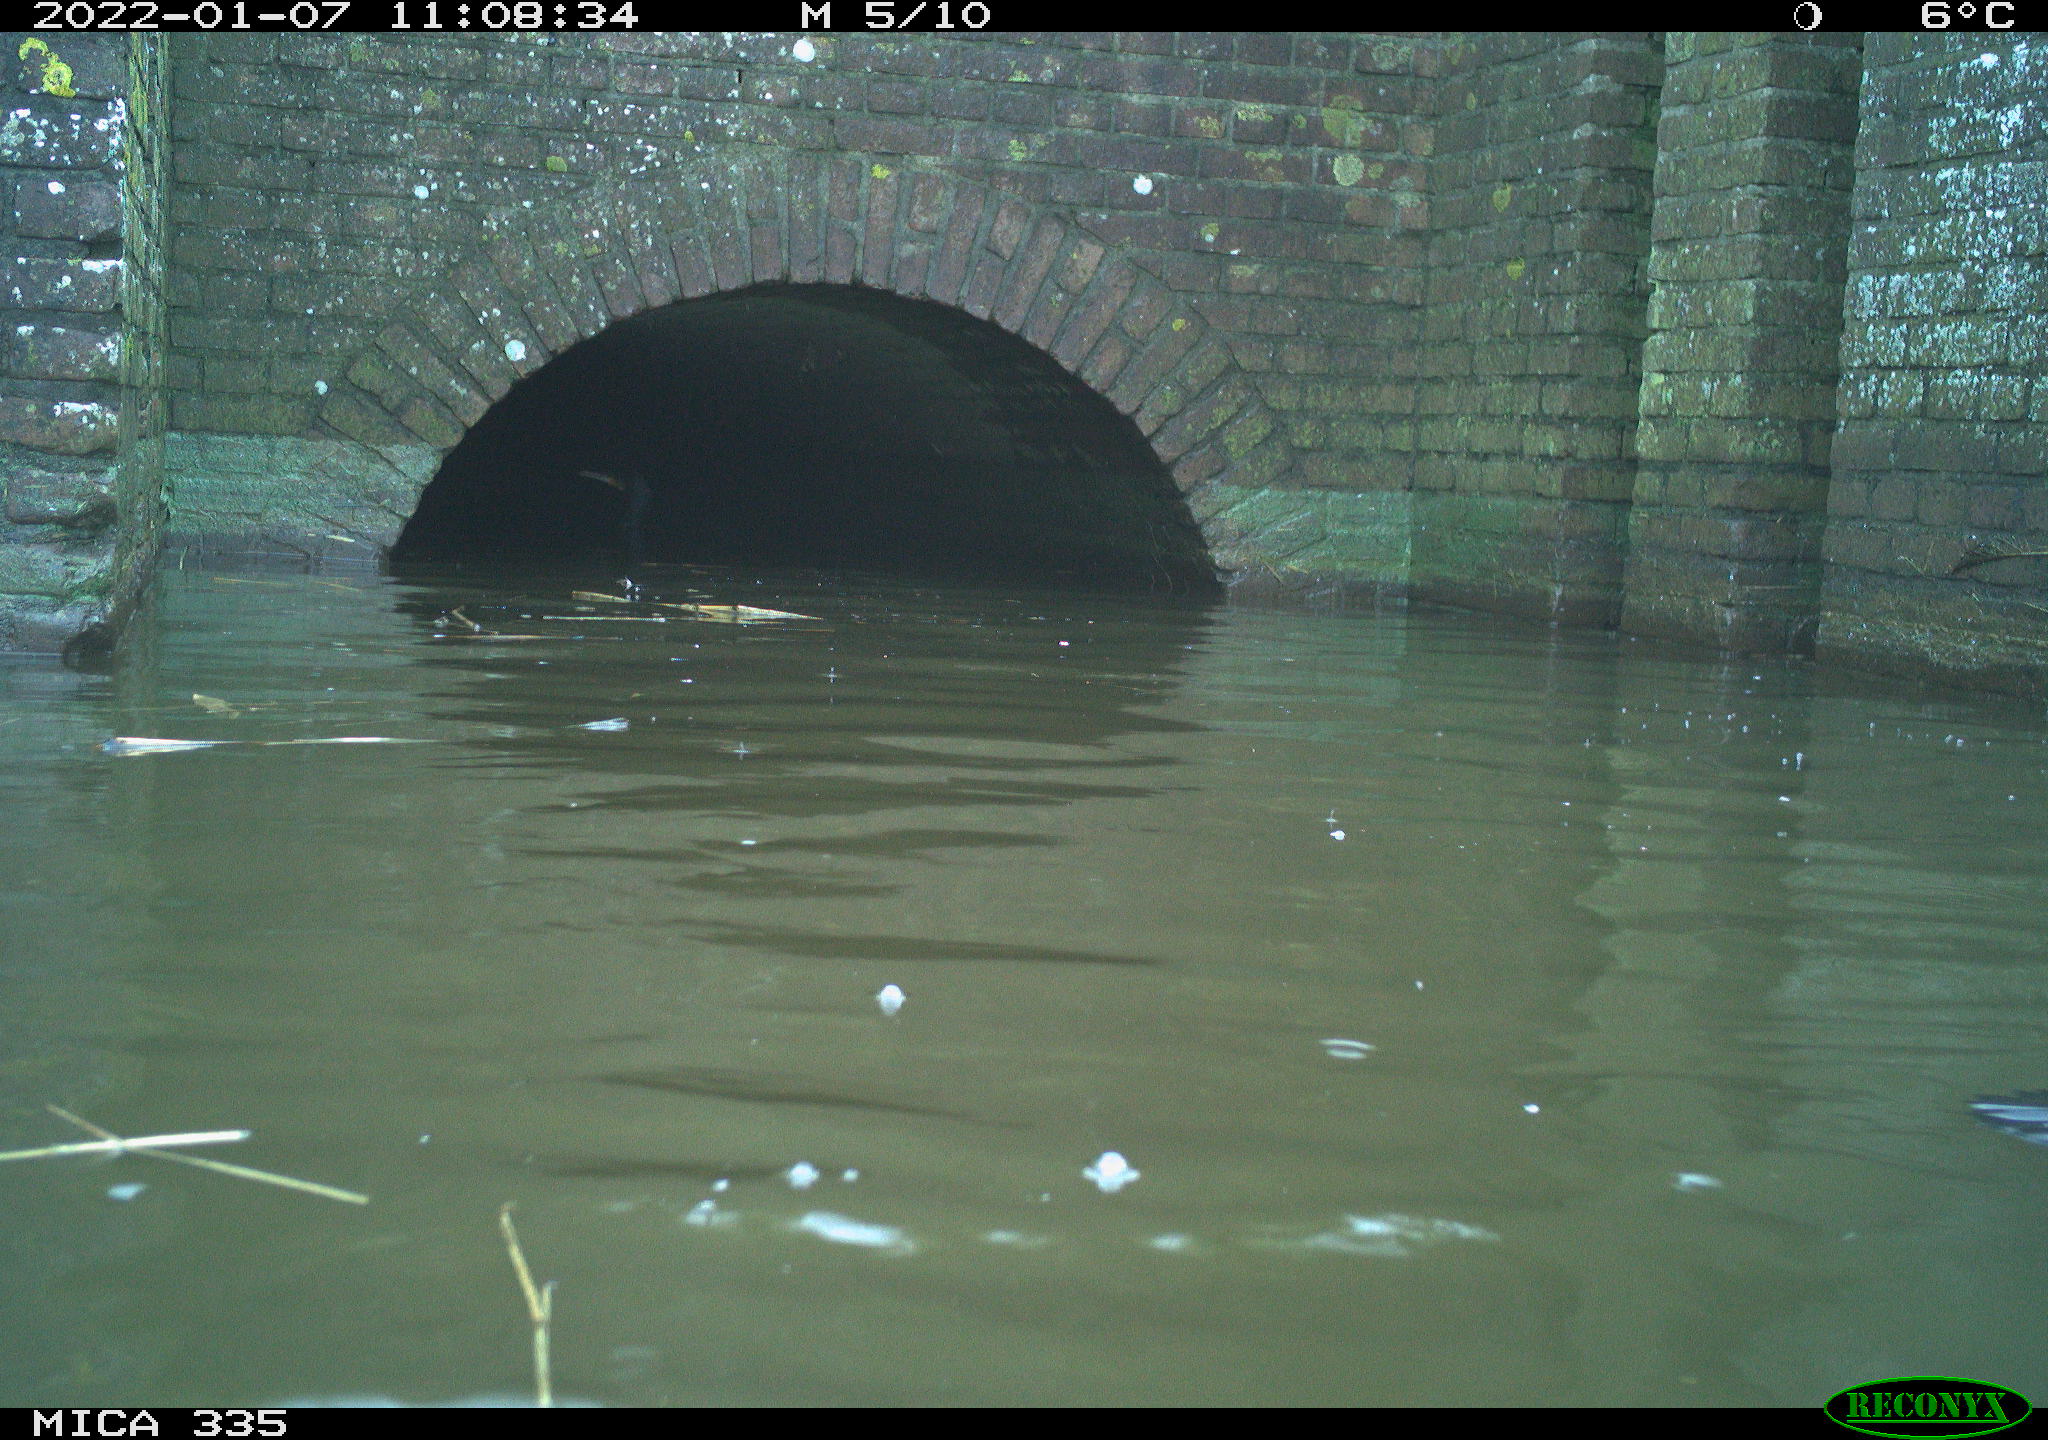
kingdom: Animalia
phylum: Chordata
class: Aves
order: Suliformes
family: Phalacrocoracidae
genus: Phalacrocorax
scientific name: Phalacrocorax carbo
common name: Great cormorant
